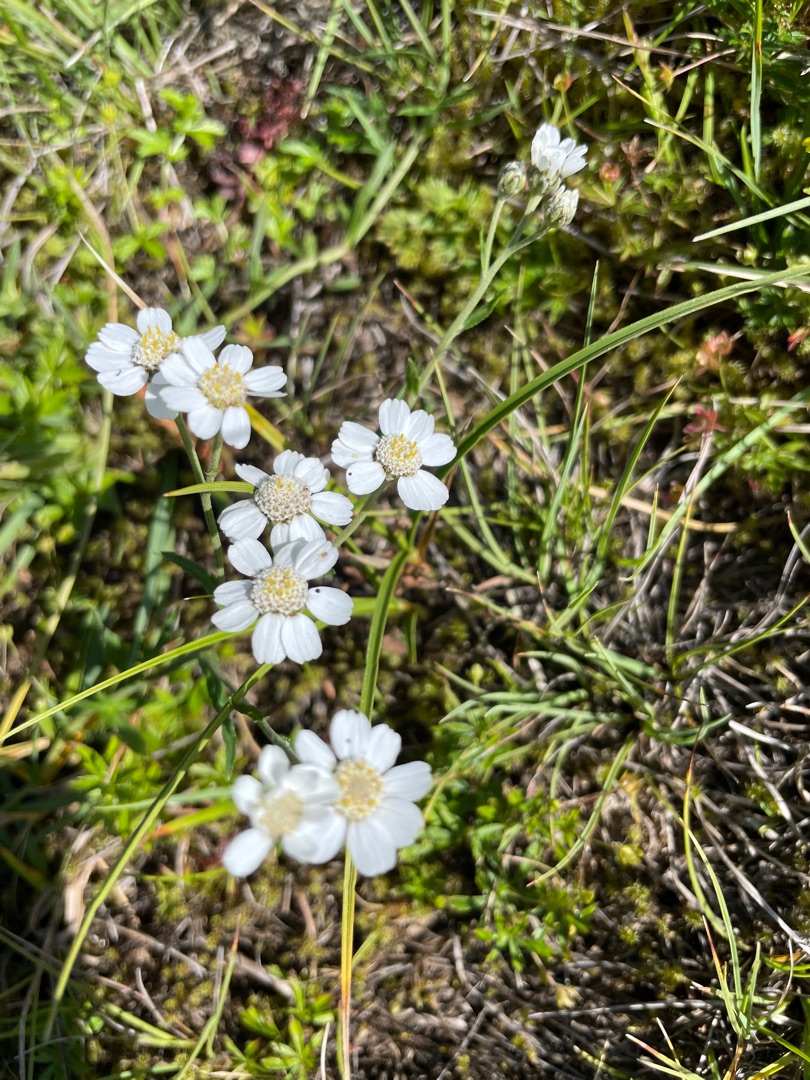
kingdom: Plantae
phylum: Tracheophyta
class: Magnoliopsida
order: Asterales
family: Asteraceae
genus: Achillea
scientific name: Achillea ptarmica
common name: Nyse-røllike
